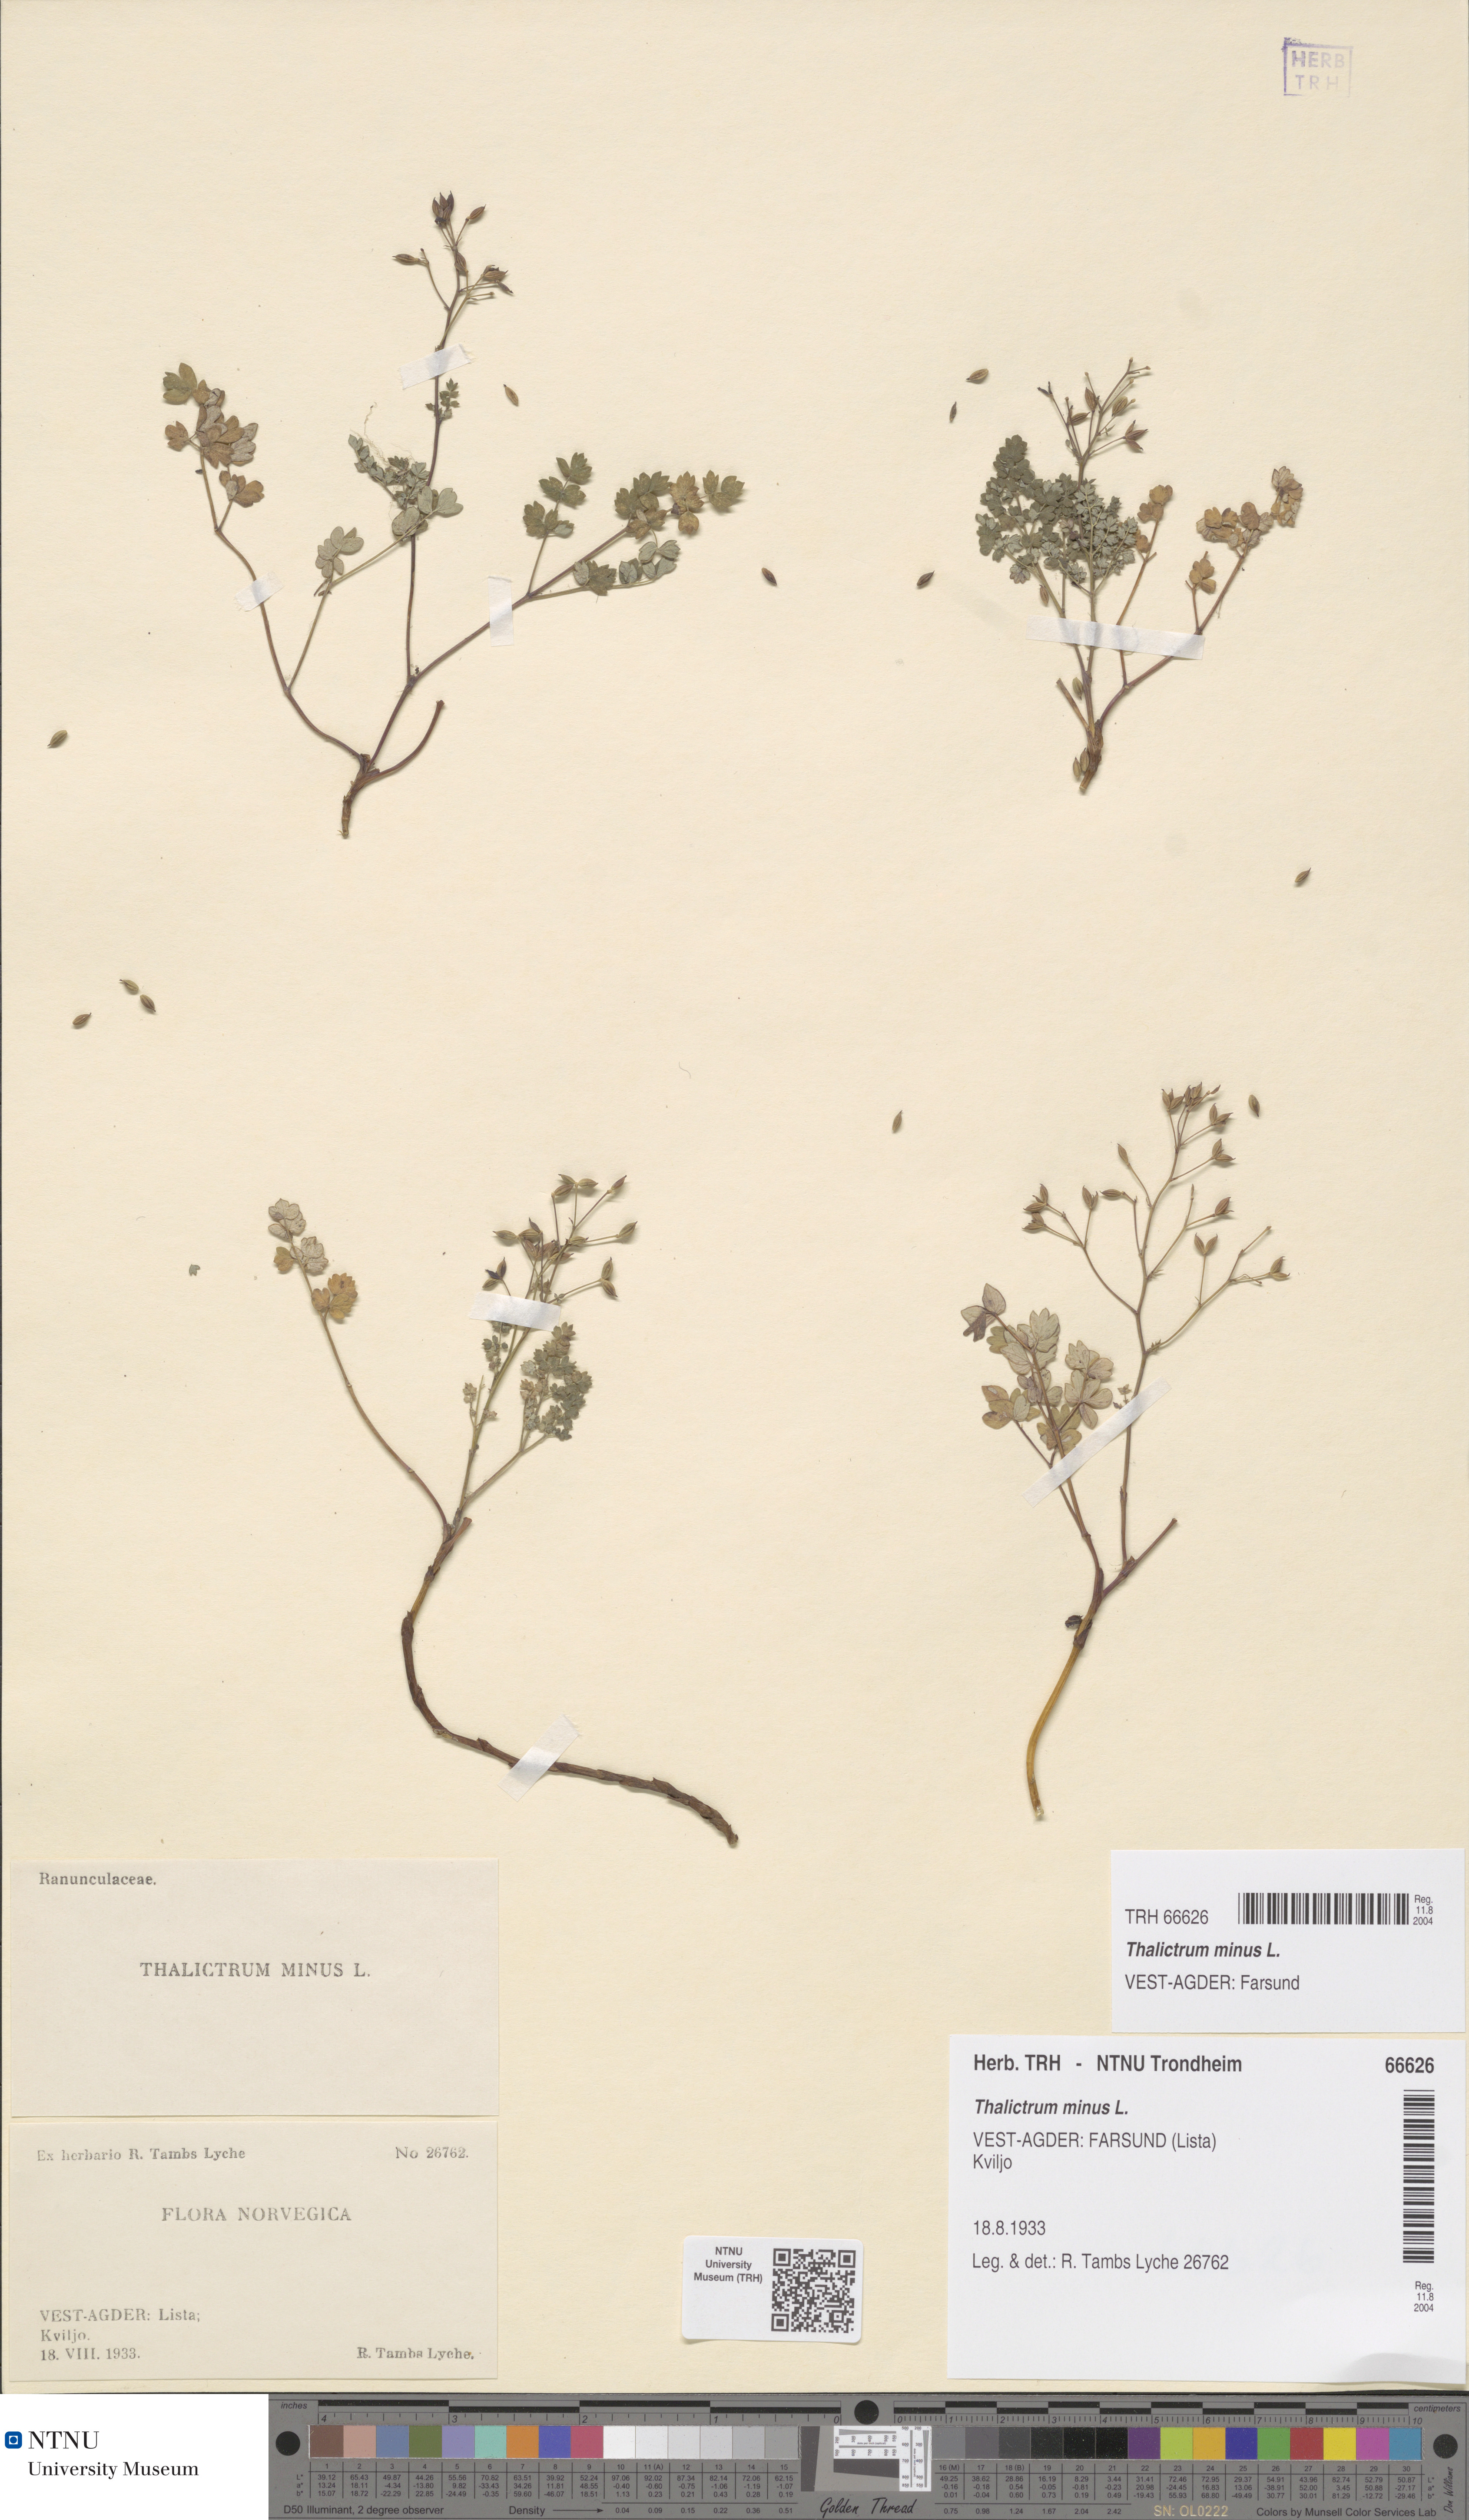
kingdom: Plantae
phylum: Tracheophyta
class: Magnoliopsida
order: Ranunculales
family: Ranunculaceae
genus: Thalictrum
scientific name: Thalictrum minus
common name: Lesser meadow-rue
